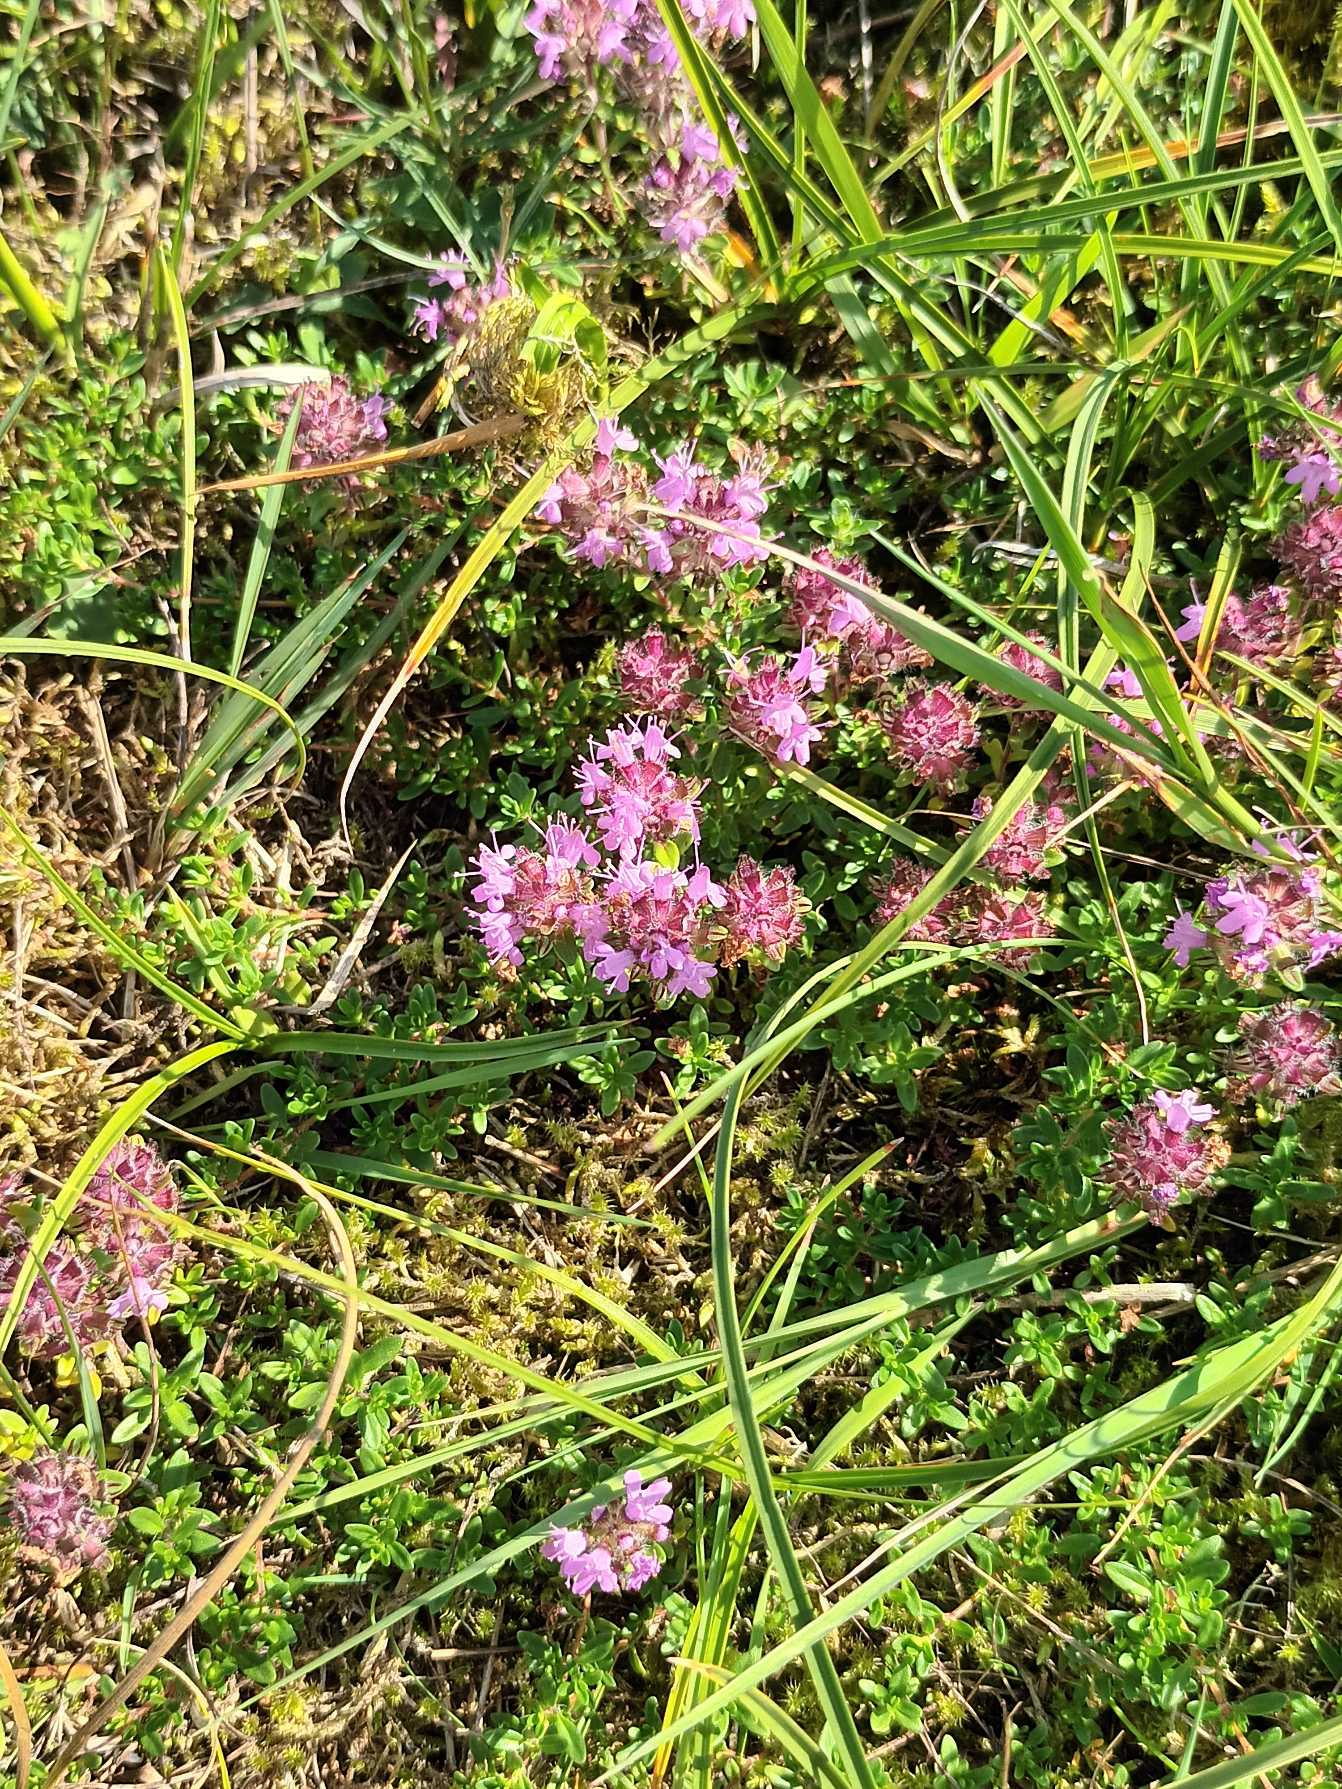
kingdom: Plantae
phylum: Tracheophyta
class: Magnoliopsida
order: Lamiales
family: Lamiaceae
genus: Thymus
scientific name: Thymus serpyllum
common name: Smalbladet timian
